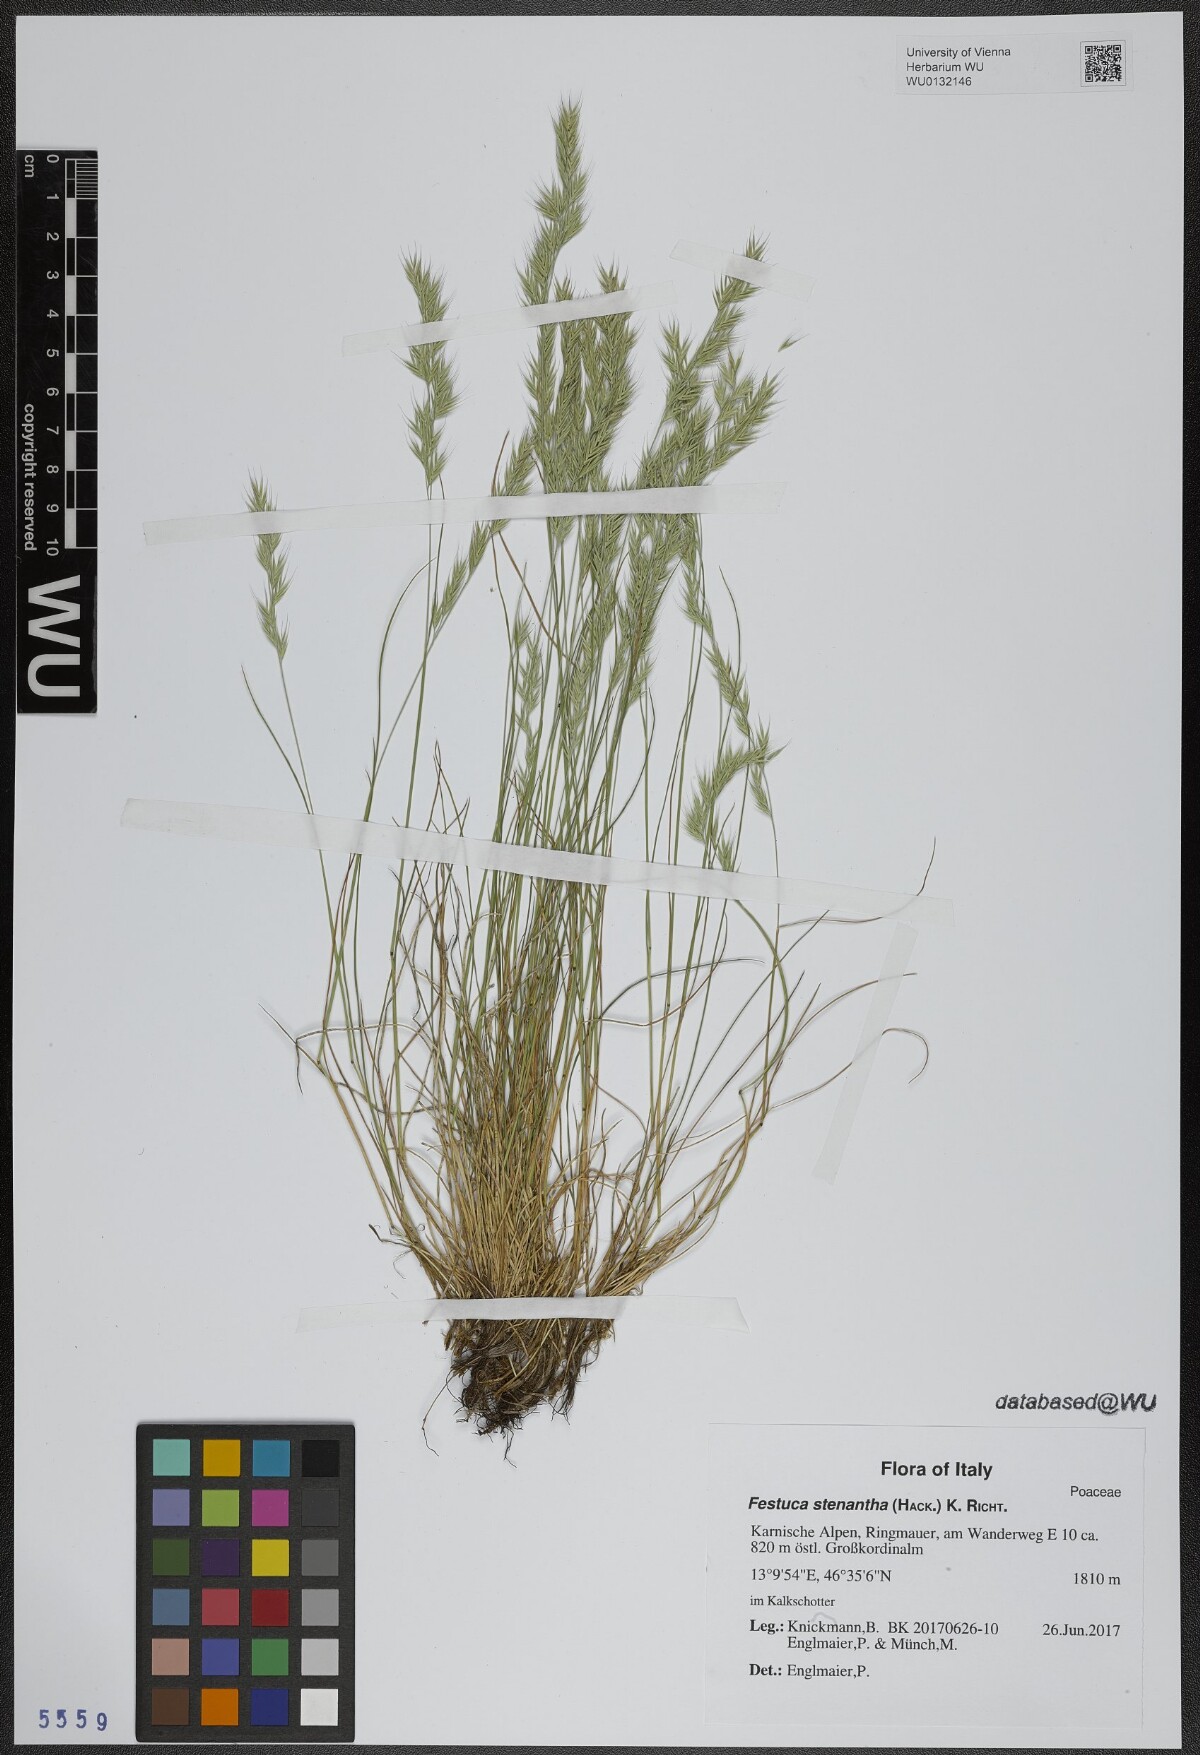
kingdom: Plantae
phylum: Tracheophyta
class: Liliopsida
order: Poales
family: Poaceae
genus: Festuca
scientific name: Festuca stenantha
